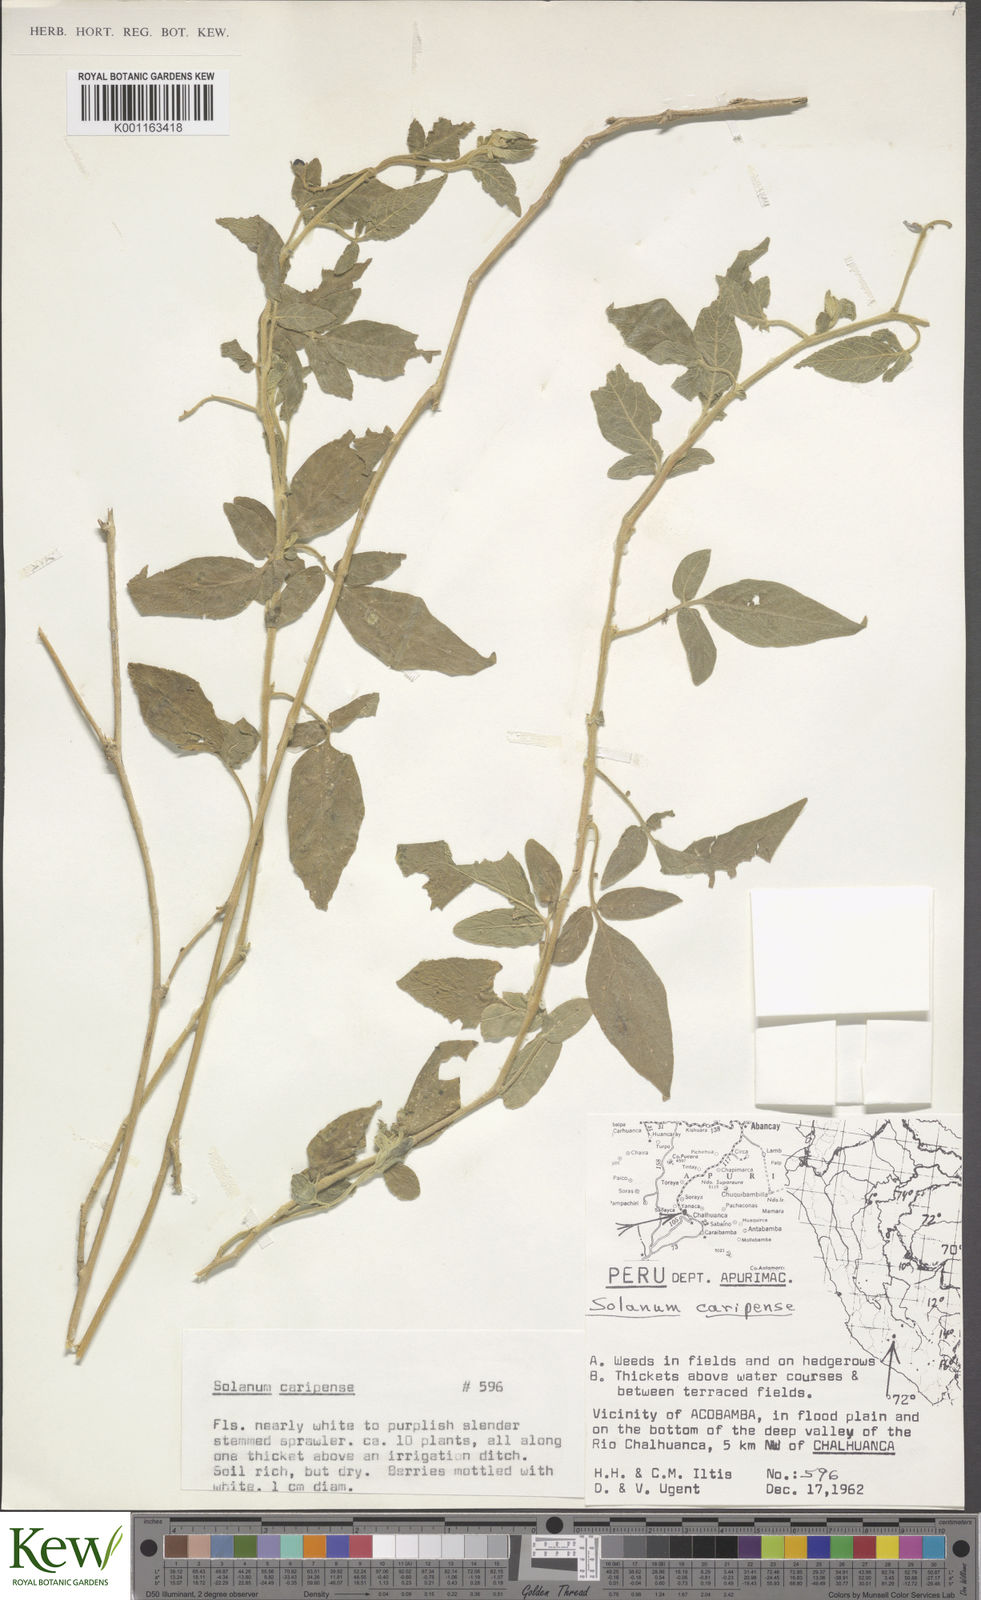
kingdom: Plantae
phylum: Tracheophyta
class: Magnoliopsida
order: Solanales
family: Solanaceae
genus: Solanum
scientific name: Solanum caripense
